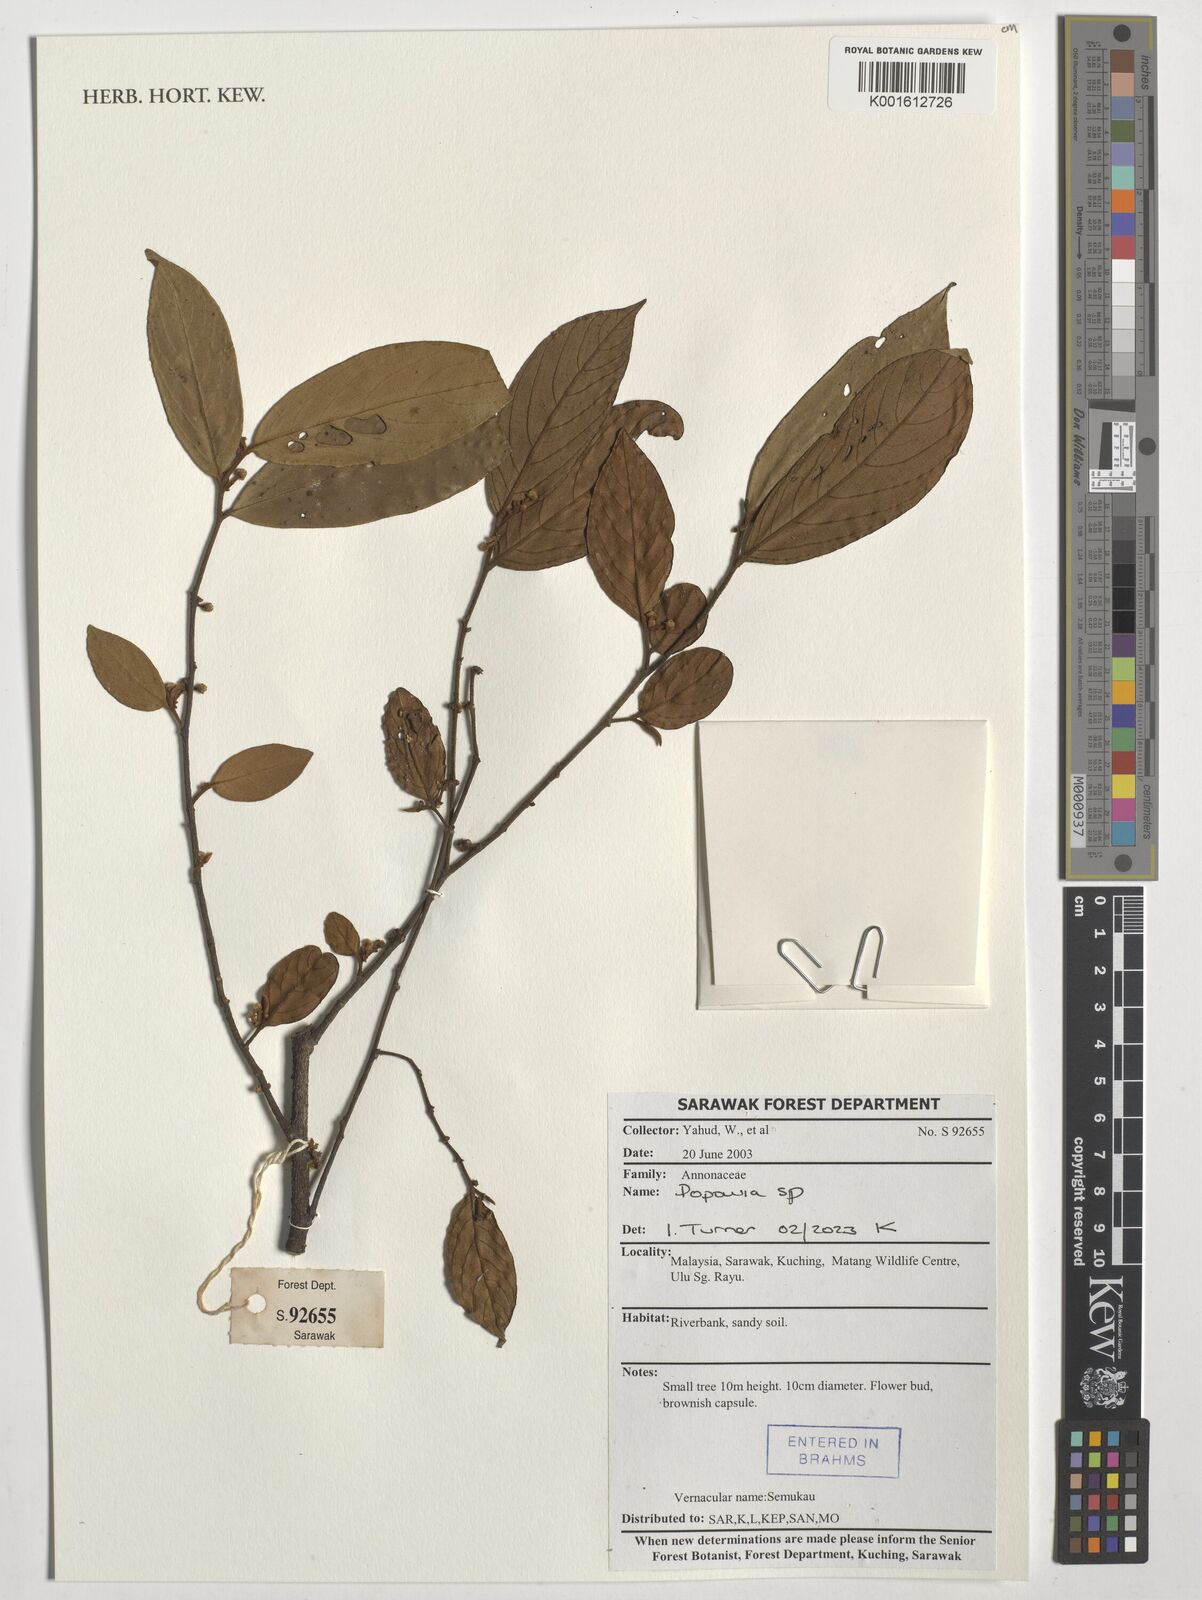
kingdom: Plantae
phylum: Tracheophyta
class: Magnoliopsida
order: Magnoliales
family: Annonaceae
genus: Popowia
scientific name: Popowia
